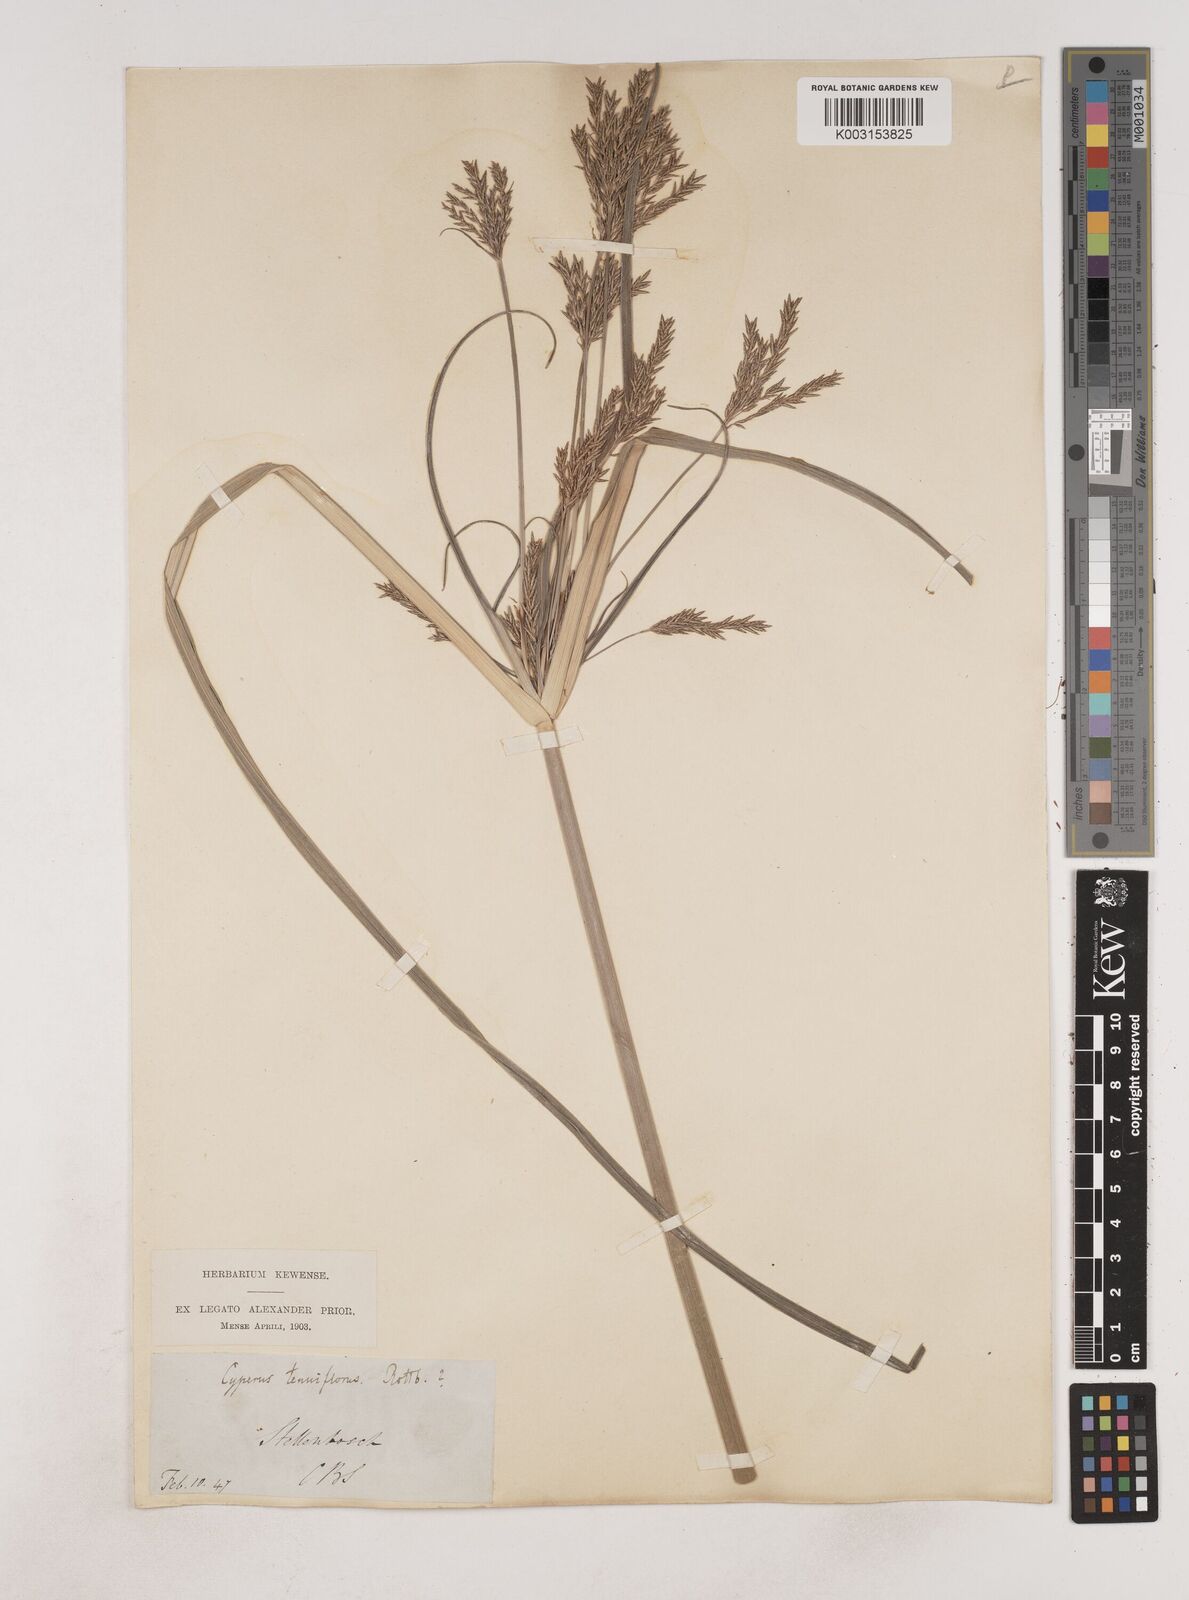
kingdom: Plantae
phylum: Tracheophyta
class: Liliopsida
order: Poales
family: Cyperaceae
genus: Cyperus
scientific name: Cyperus
